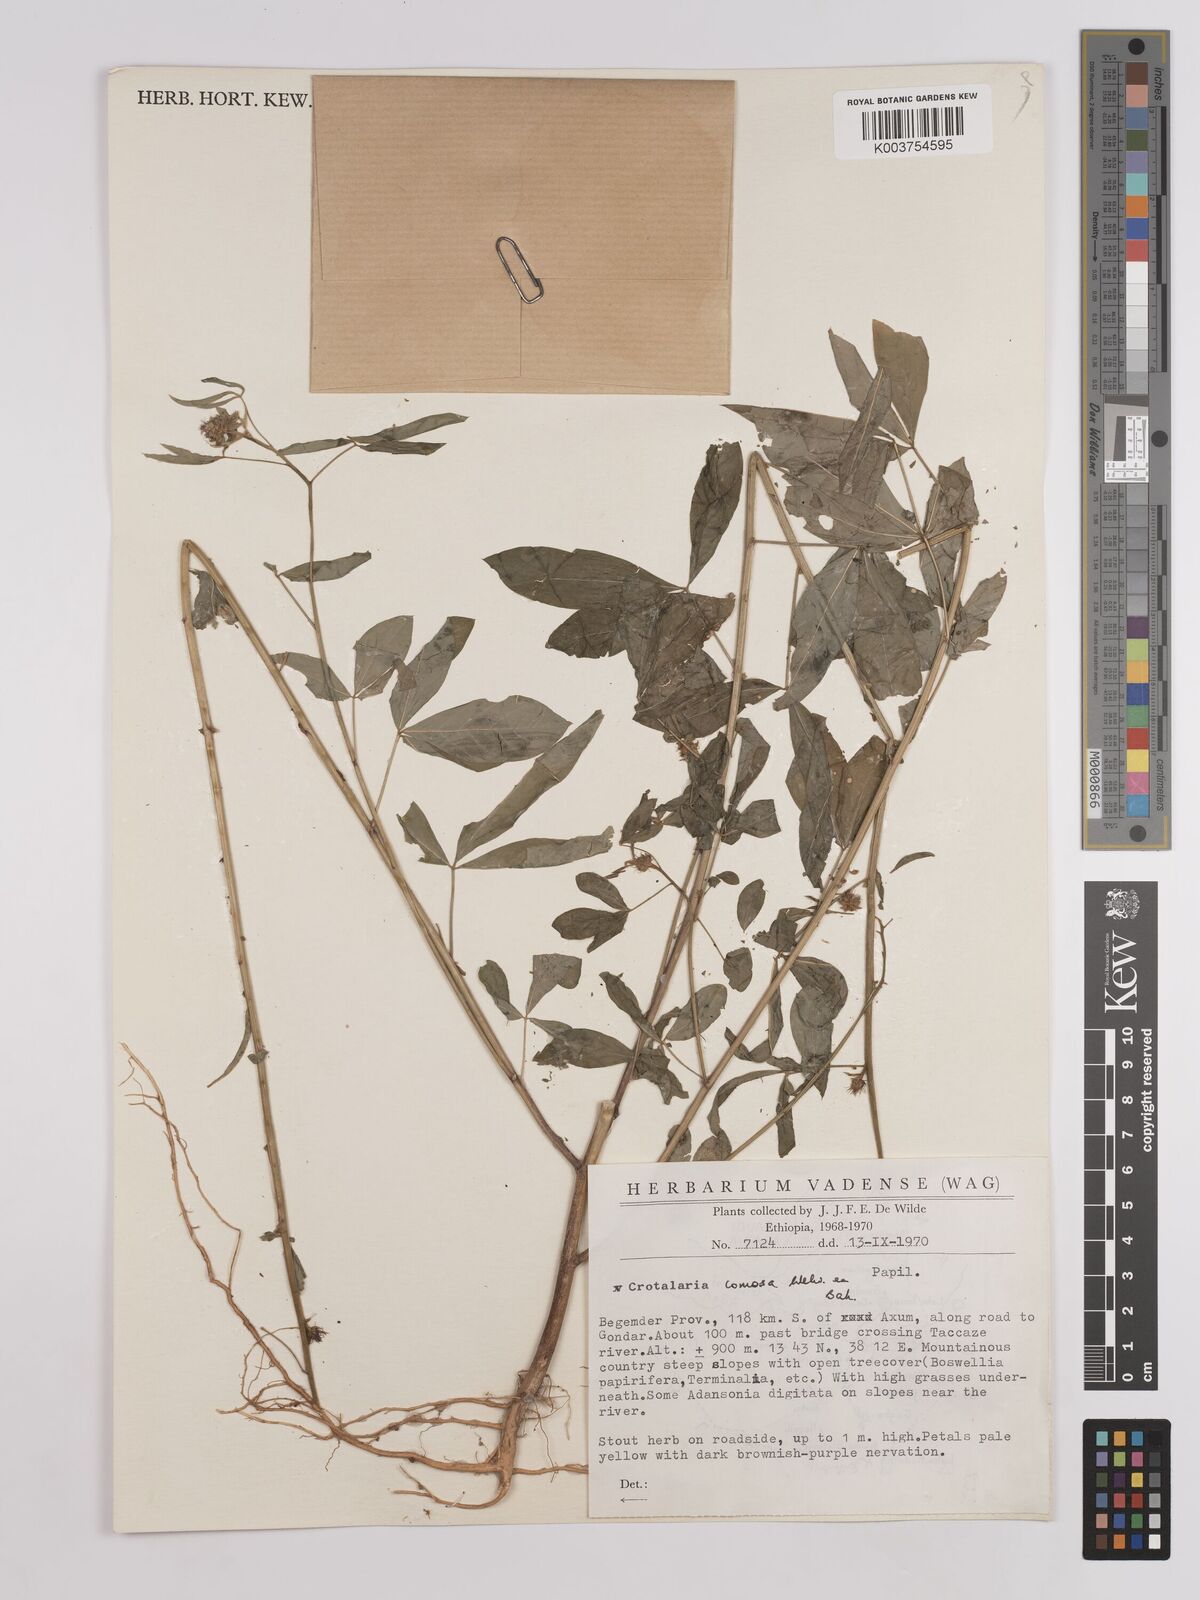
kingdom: Plantae
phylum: Tracheophyta
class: Magnoliopsida
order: Fabales
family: Fabaceae
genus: Crotalaria
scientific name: Crotalaria comosa
